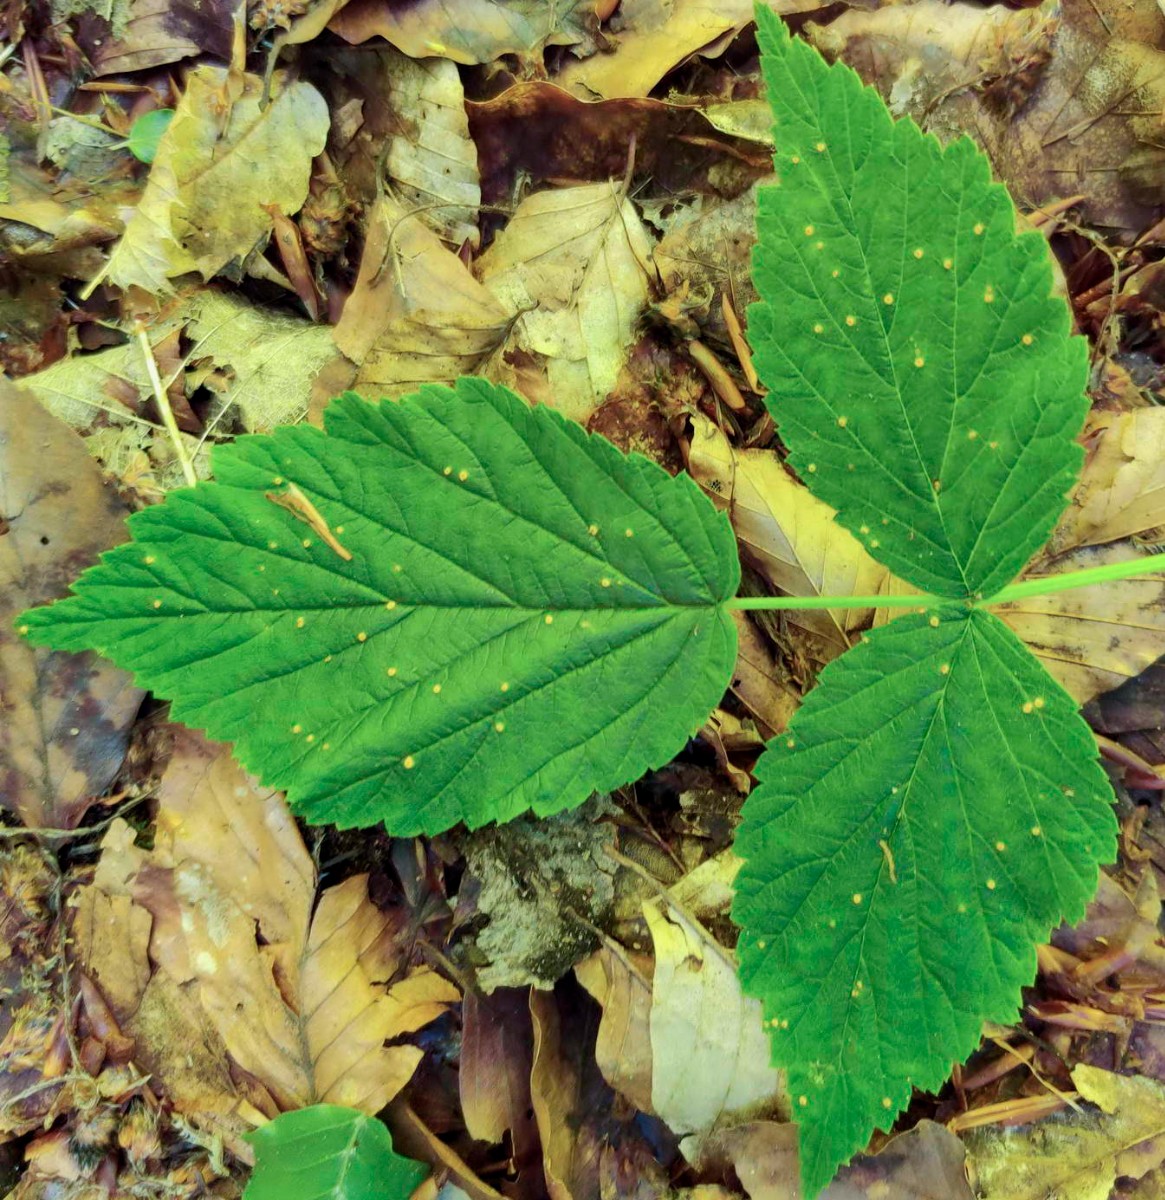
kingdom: Fungi
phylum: Basidiomycota
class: Pucciniomycetes
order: Pucciniales
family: Phragmidiaceae
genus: Phragmidium
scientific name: Phragmidium rubi-idaei
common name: hindbær-flercellerust
